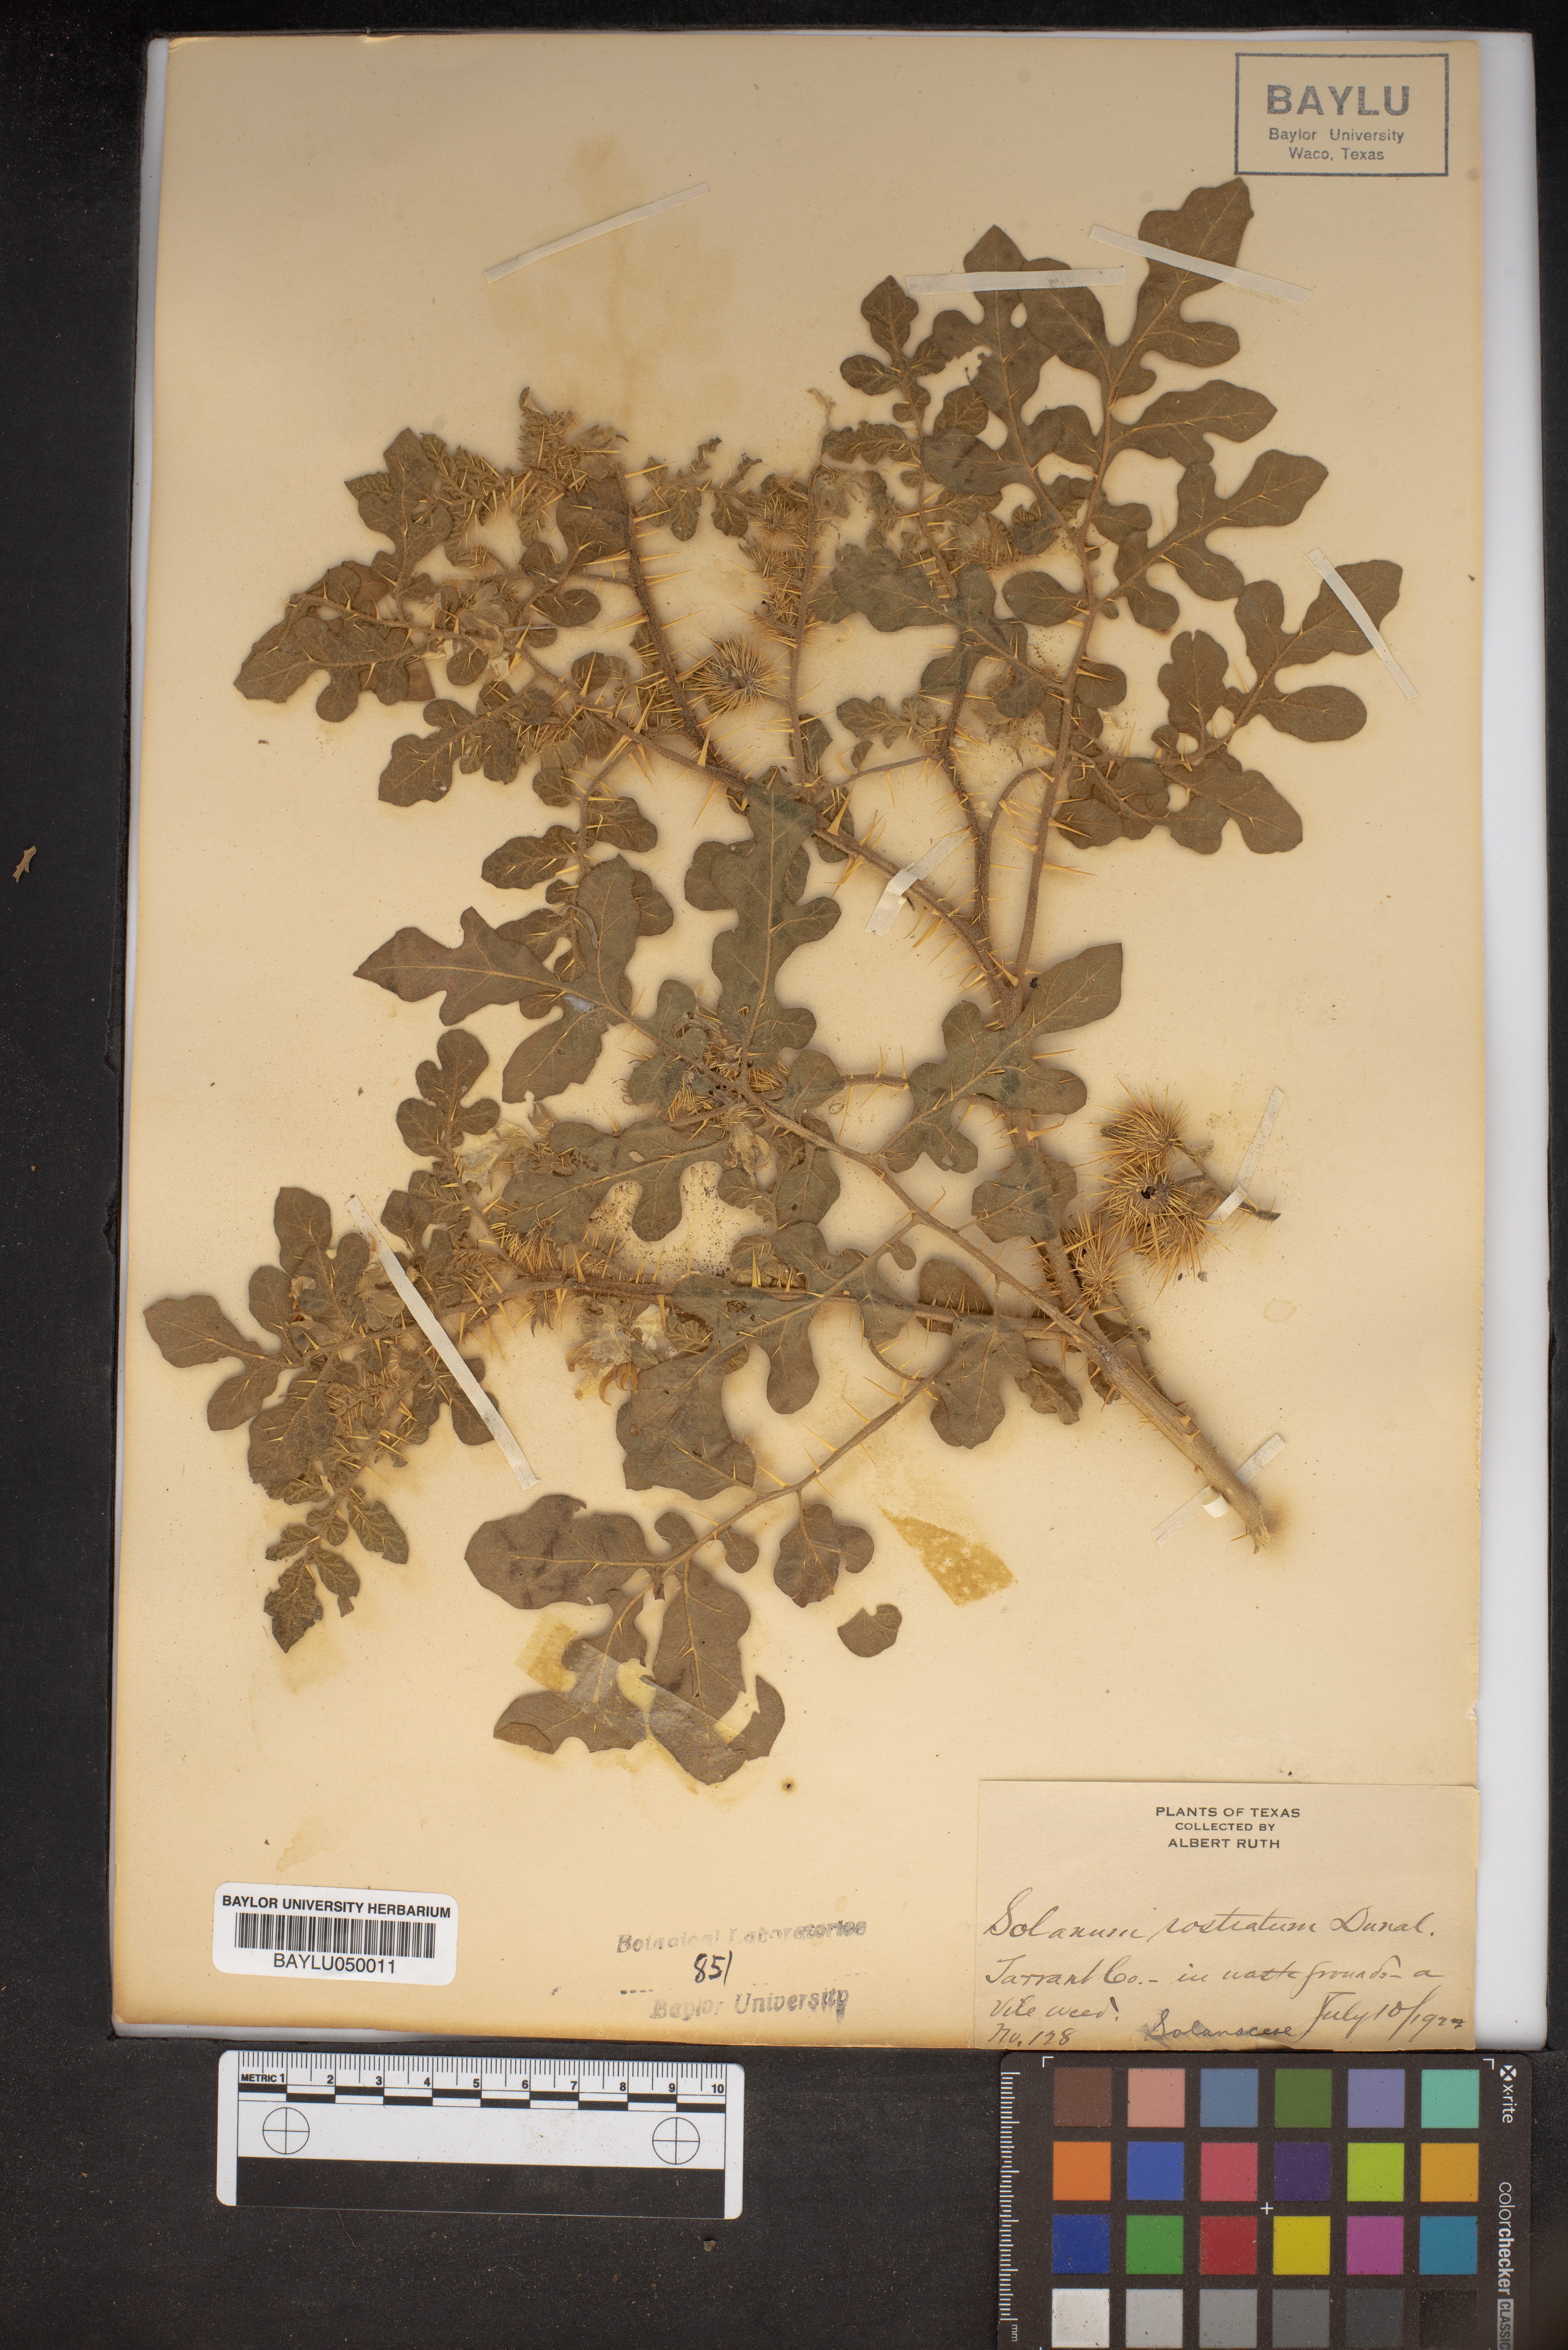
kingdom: Plantae
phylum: Tracheophyta
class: Magnoliopsida
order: Solanales
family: Solanaceae
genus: Solanum
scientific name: Solanum angustifolium
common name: Buffalobur nightshade
